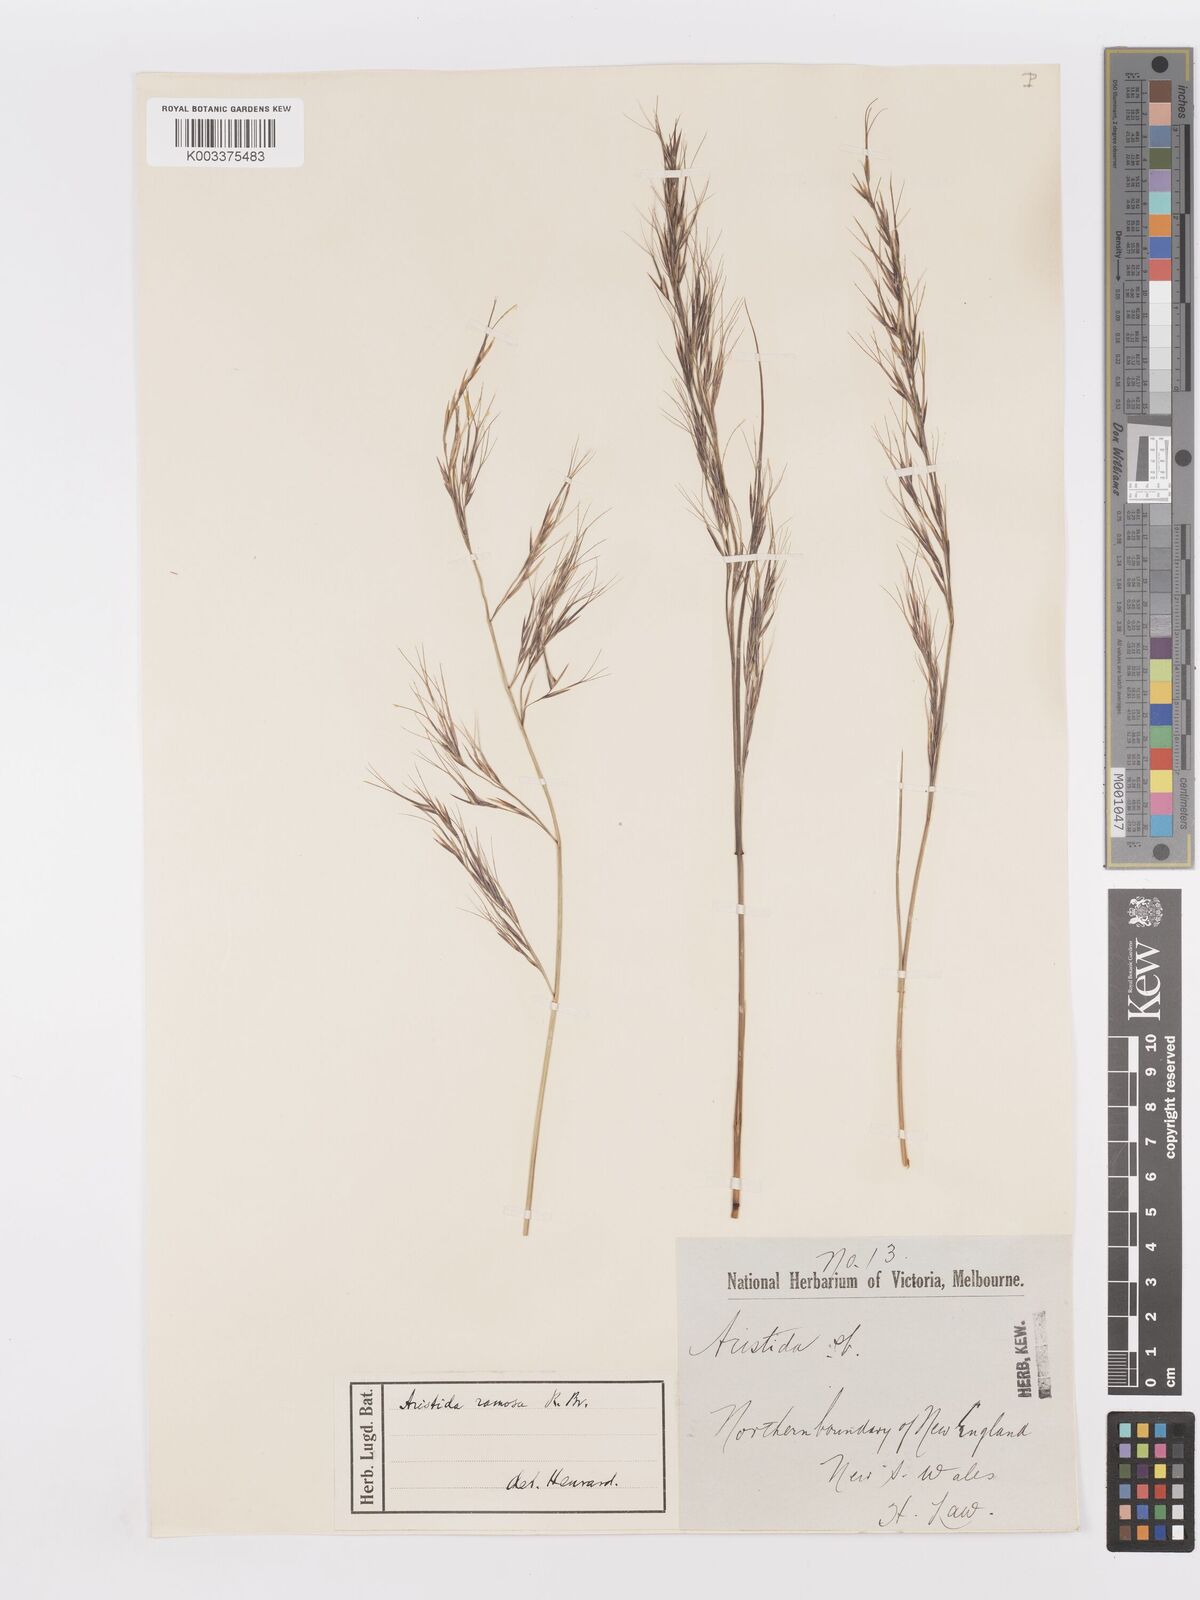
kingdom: Plantae
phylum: Tracheophyta
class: Liliopsida
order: Poales
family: Poaceae
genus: Aristida
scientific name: Aristida ramosa
